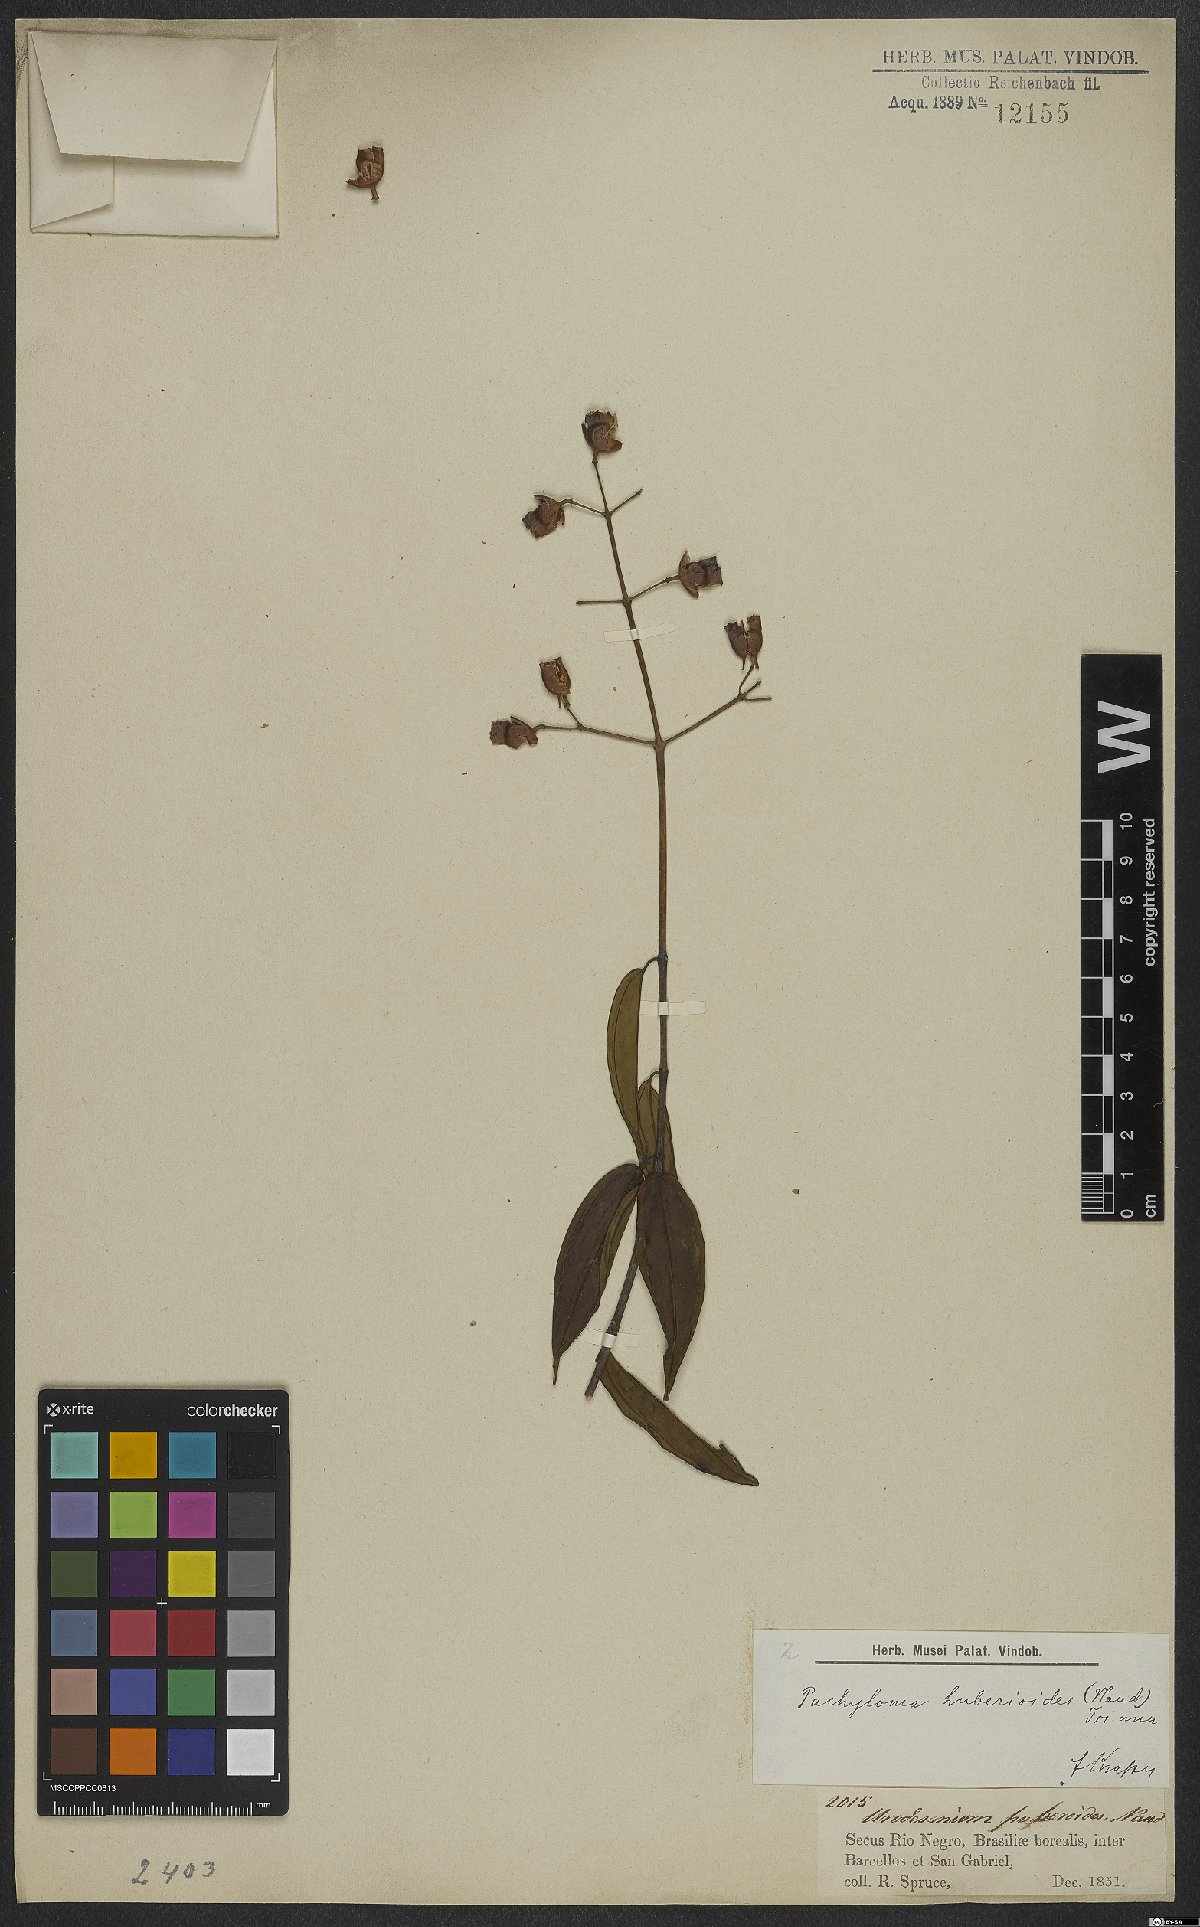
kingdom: Plantae
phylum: Tracheophyta
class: Magnoliopsida
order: Myrtales
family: Melastomataceae
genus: Pachyloma
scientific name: Pachyloma huberioides
